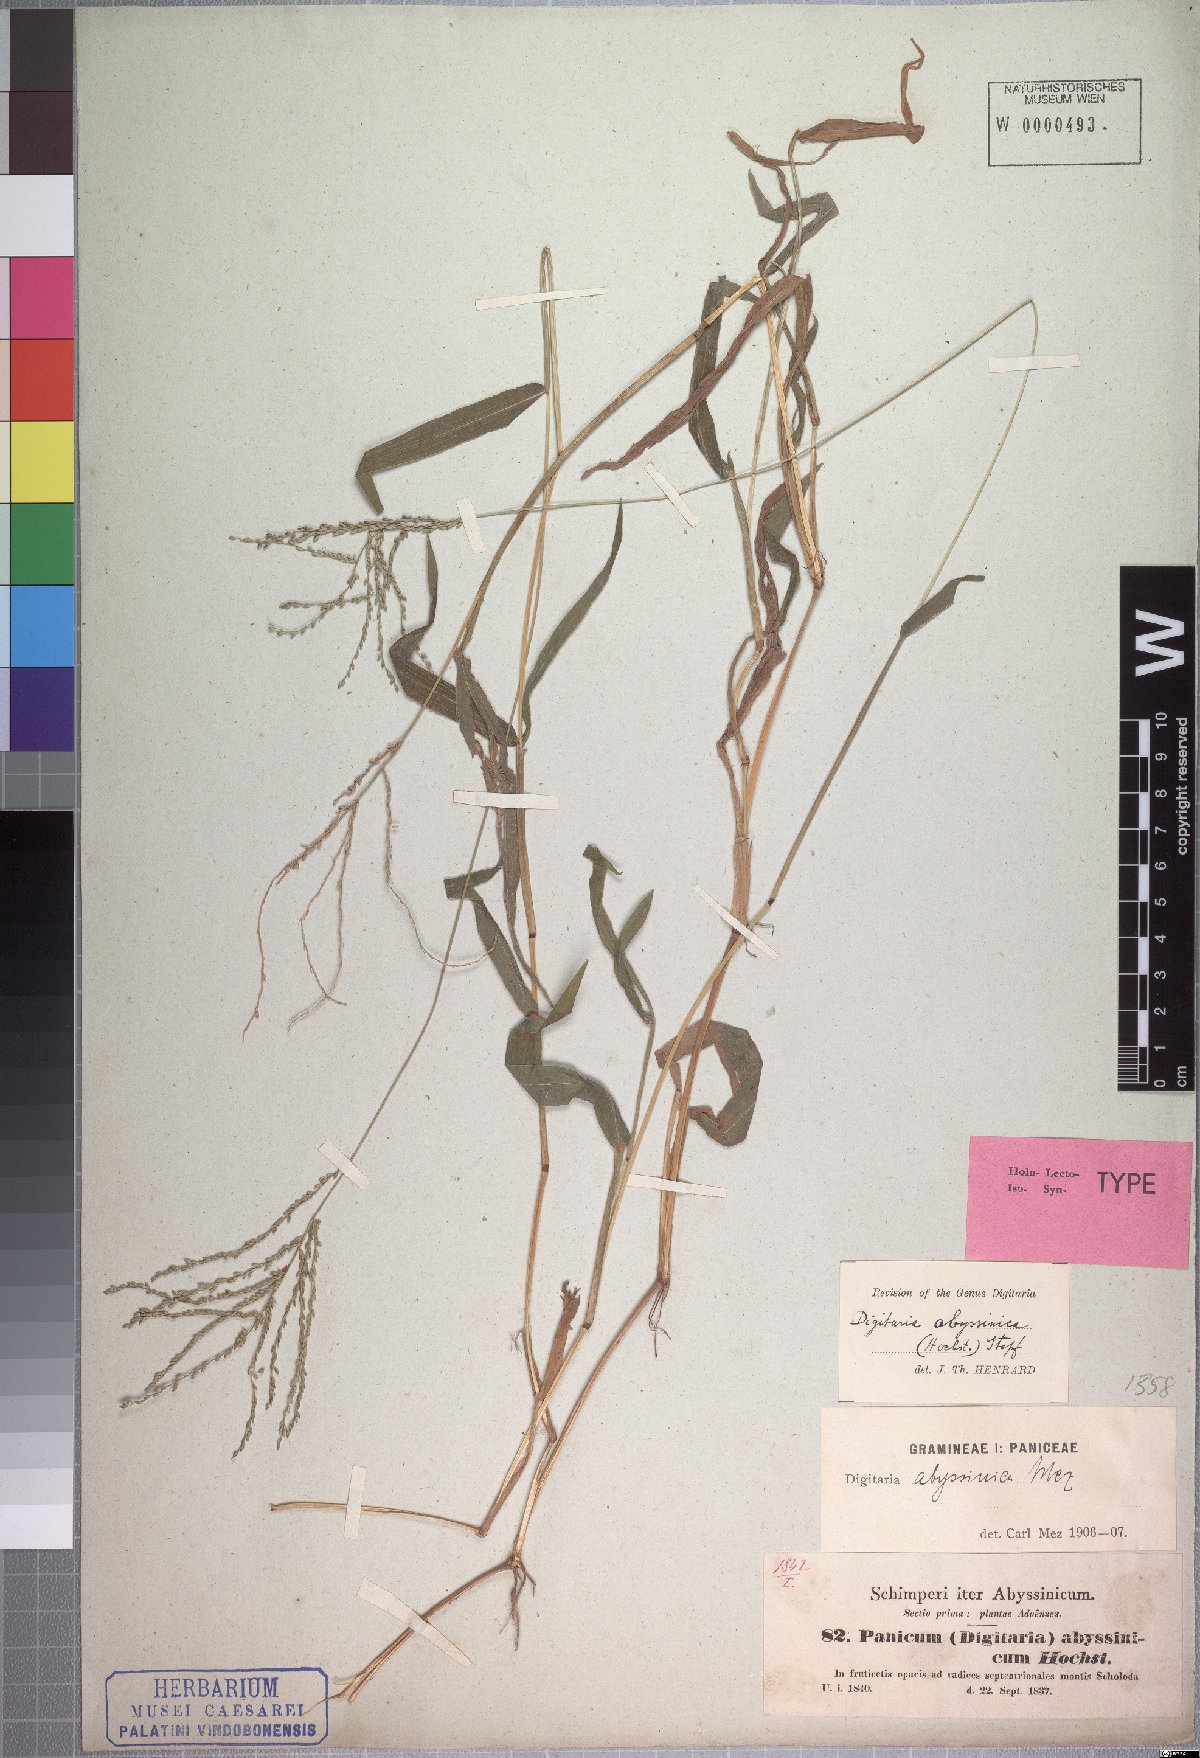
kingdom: Plantae
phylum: Tracheophyta
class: Liliopsida
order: Poales
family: Poaceae
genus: Digitaria
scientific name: Digitaria abyssinica
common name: African couchgrass
